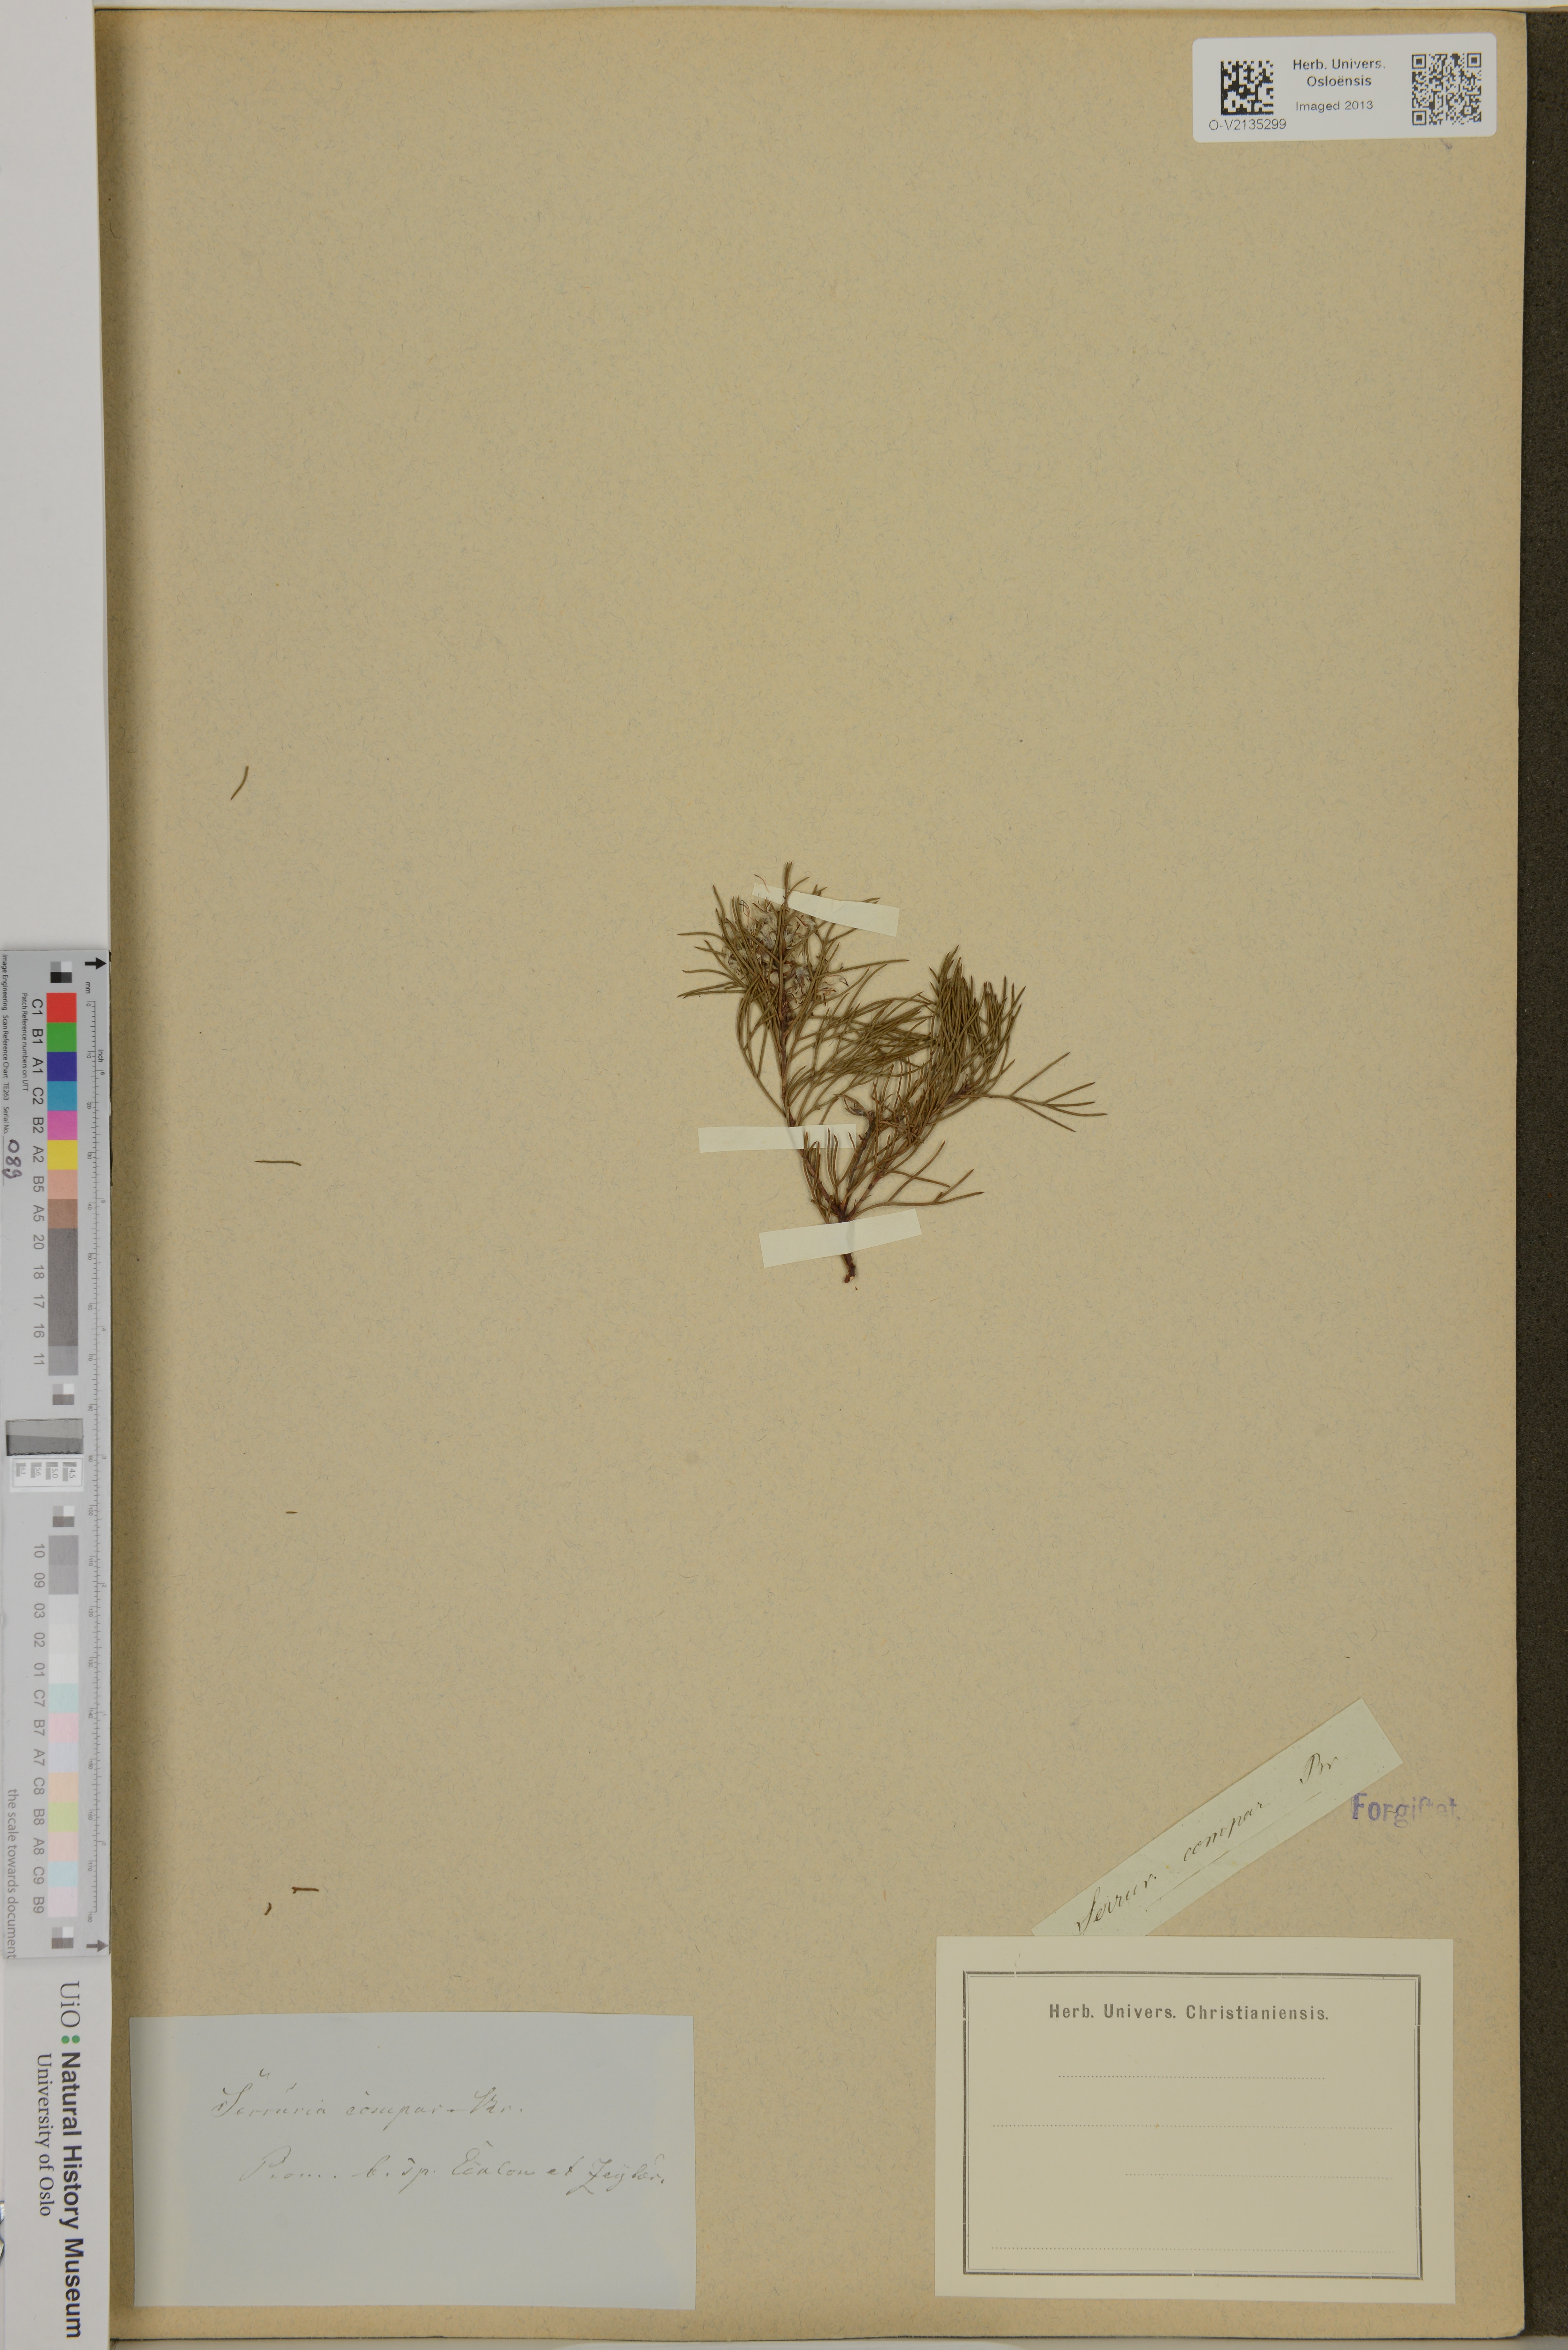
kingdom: Plantae
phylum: Tracheophyta
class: Magnoliopsida
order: Proteales
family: Proteaceae
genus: Serruria
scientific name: Serruria fasciflora
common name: Common pin spiderhead
